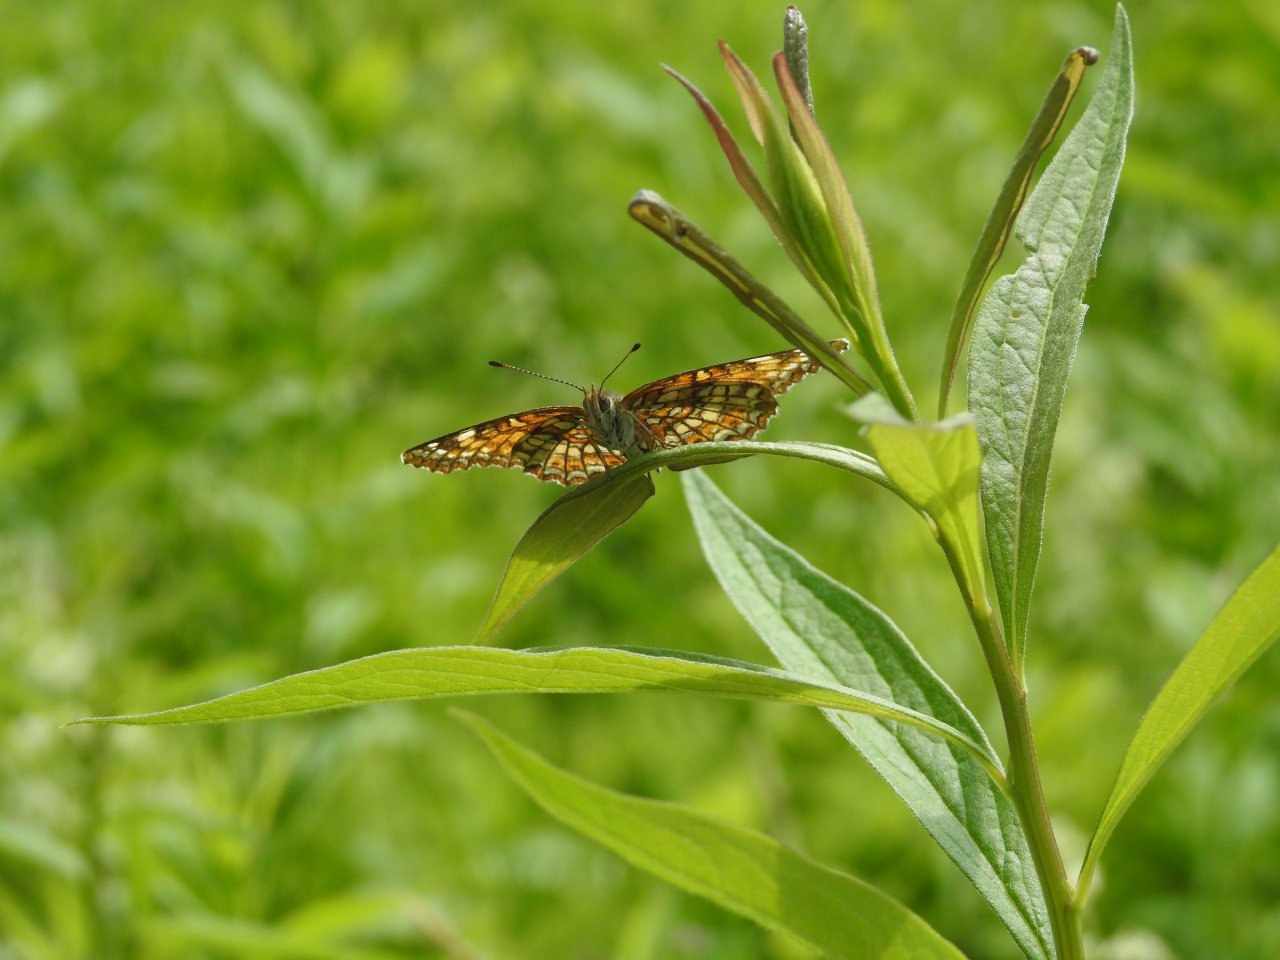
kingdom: Animalia
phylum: Arthropoda
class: Insecta
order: Lepidoptera
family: Nymphalidae
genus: Chlosyne
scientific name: Chlosyne harrisii
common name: Harris's Checkerspot
